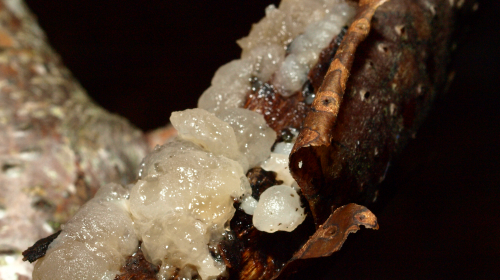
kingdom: Fungi
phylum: Basidiomycota
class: Agaricomycetes
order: Auriculariales
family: Hyaloriaceae
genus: Myxarium
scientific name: Myxarium nucleatum
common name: klar bævretop
